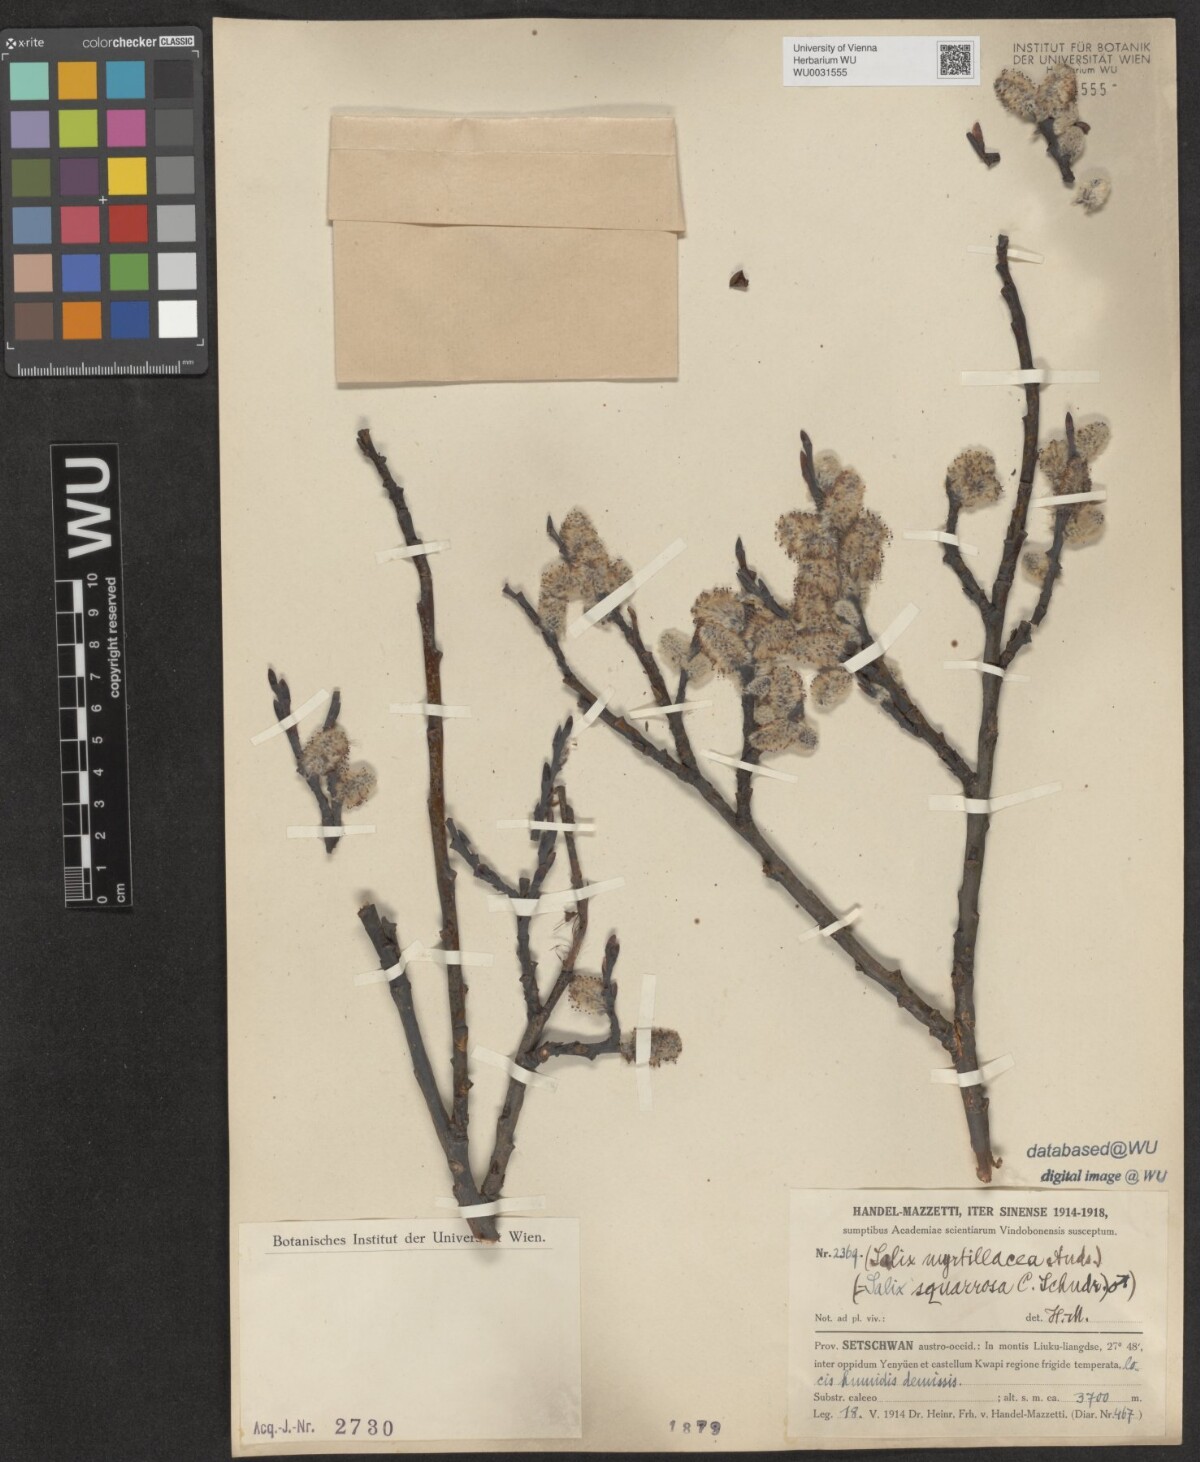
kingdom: Plantae
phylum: Tracheophyta
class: Magnoliopsida
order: Malpighiales
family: Salicaceae
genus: Salix
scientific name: Salix myrtillacea
